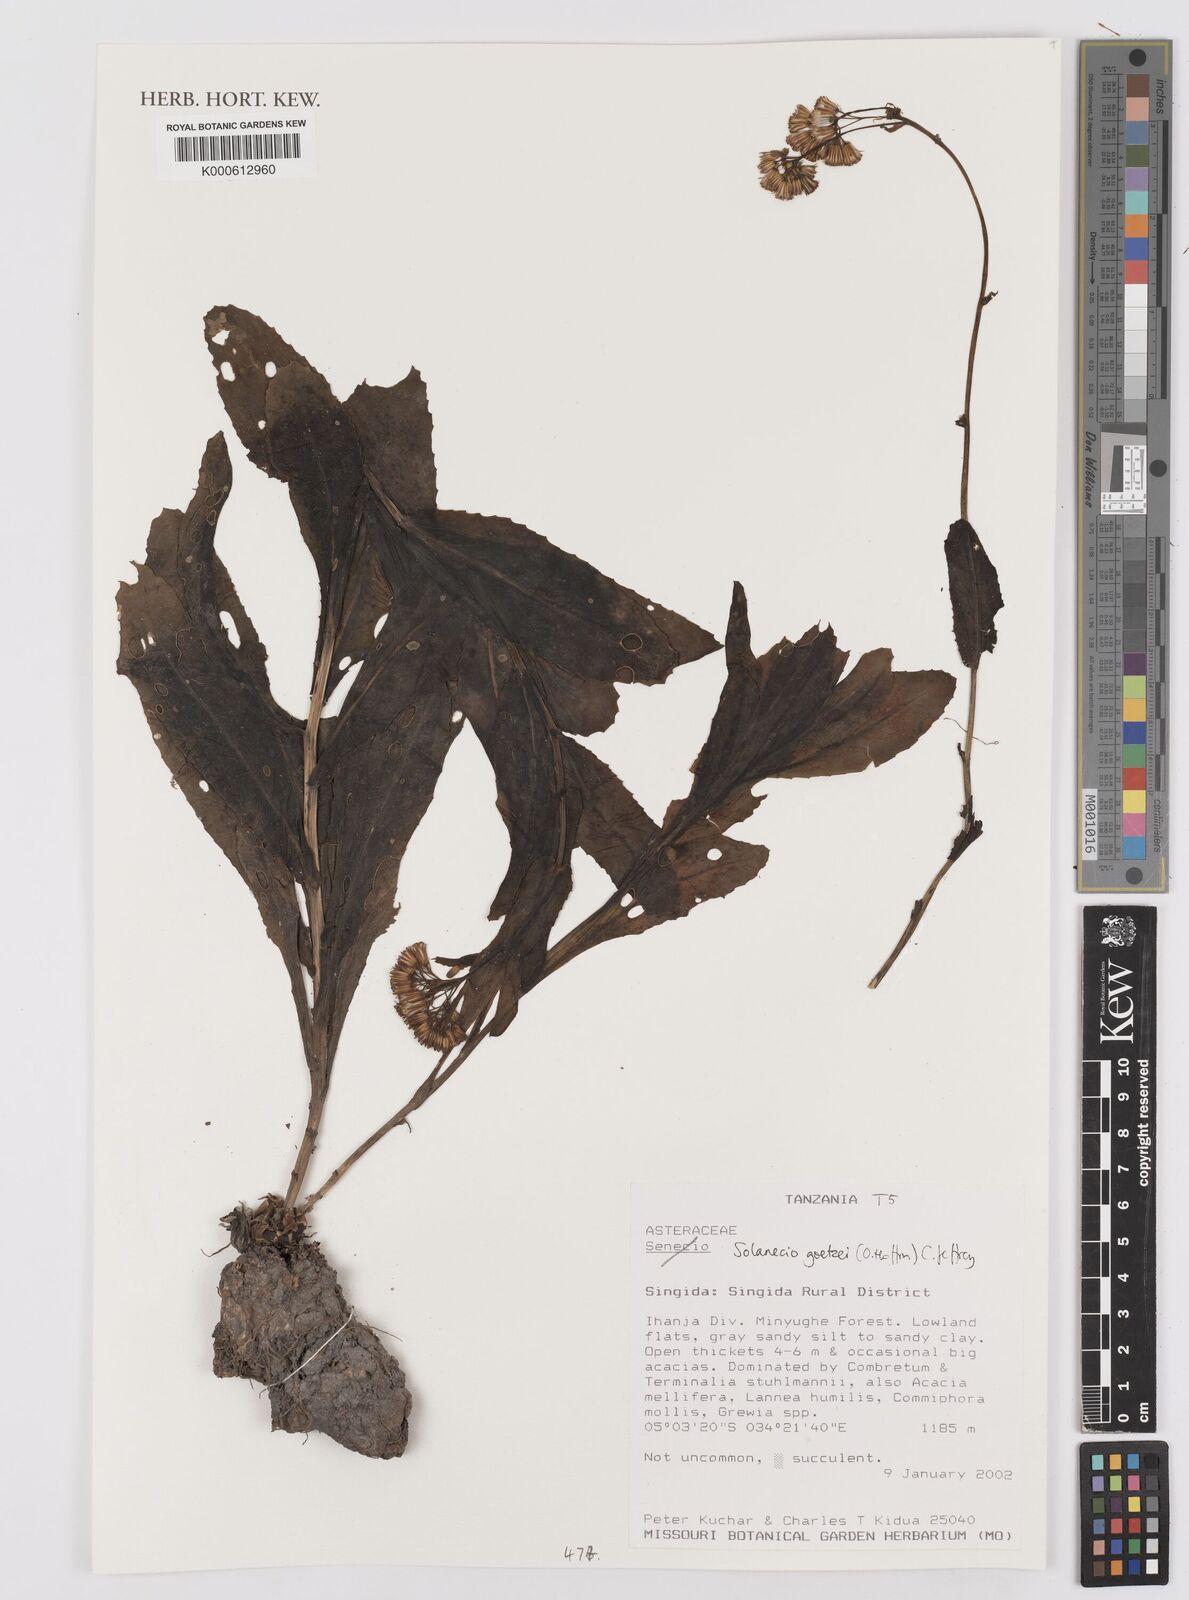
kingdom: Plantae
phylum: Tracheophyta
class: Magnoliopsida
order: Asterales
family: Asteraceae
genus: Solanecio
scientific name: Solanecio goetzei
